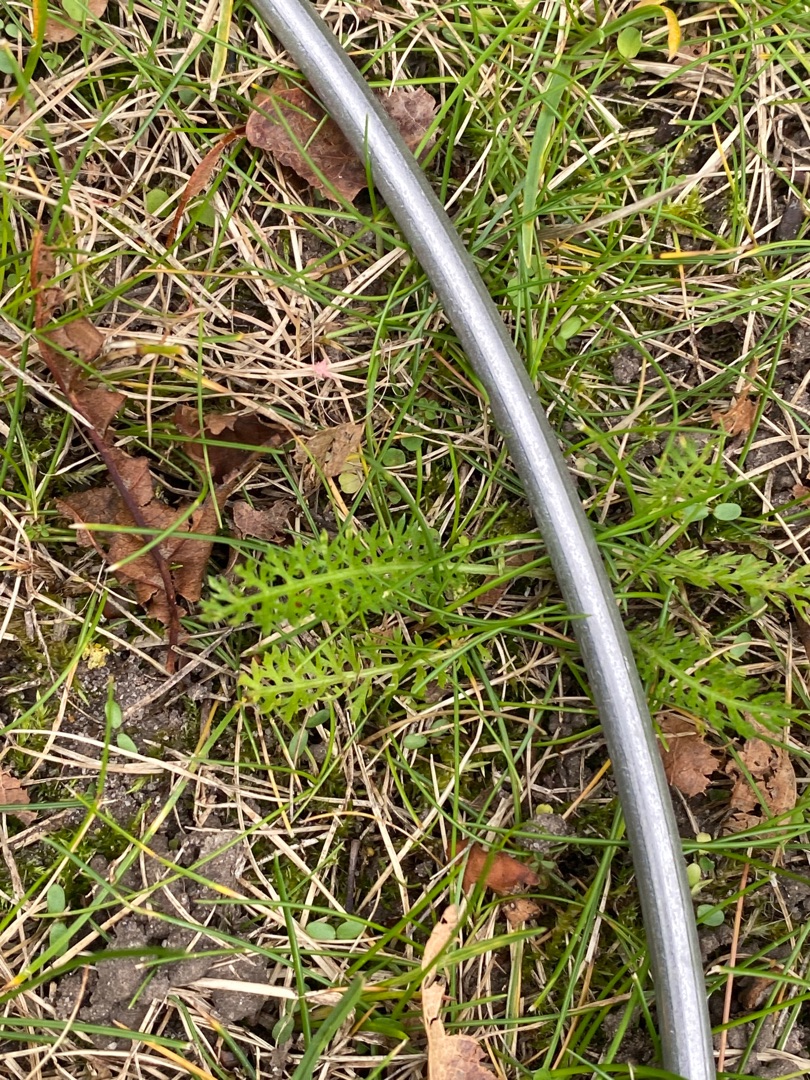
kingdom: Plantae
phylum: Tracheophyta
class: Magnoliopsida
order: Asterales
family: Asteraceae
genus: Achillea
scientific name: Achillea millefolium
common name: Almindelig røllike
